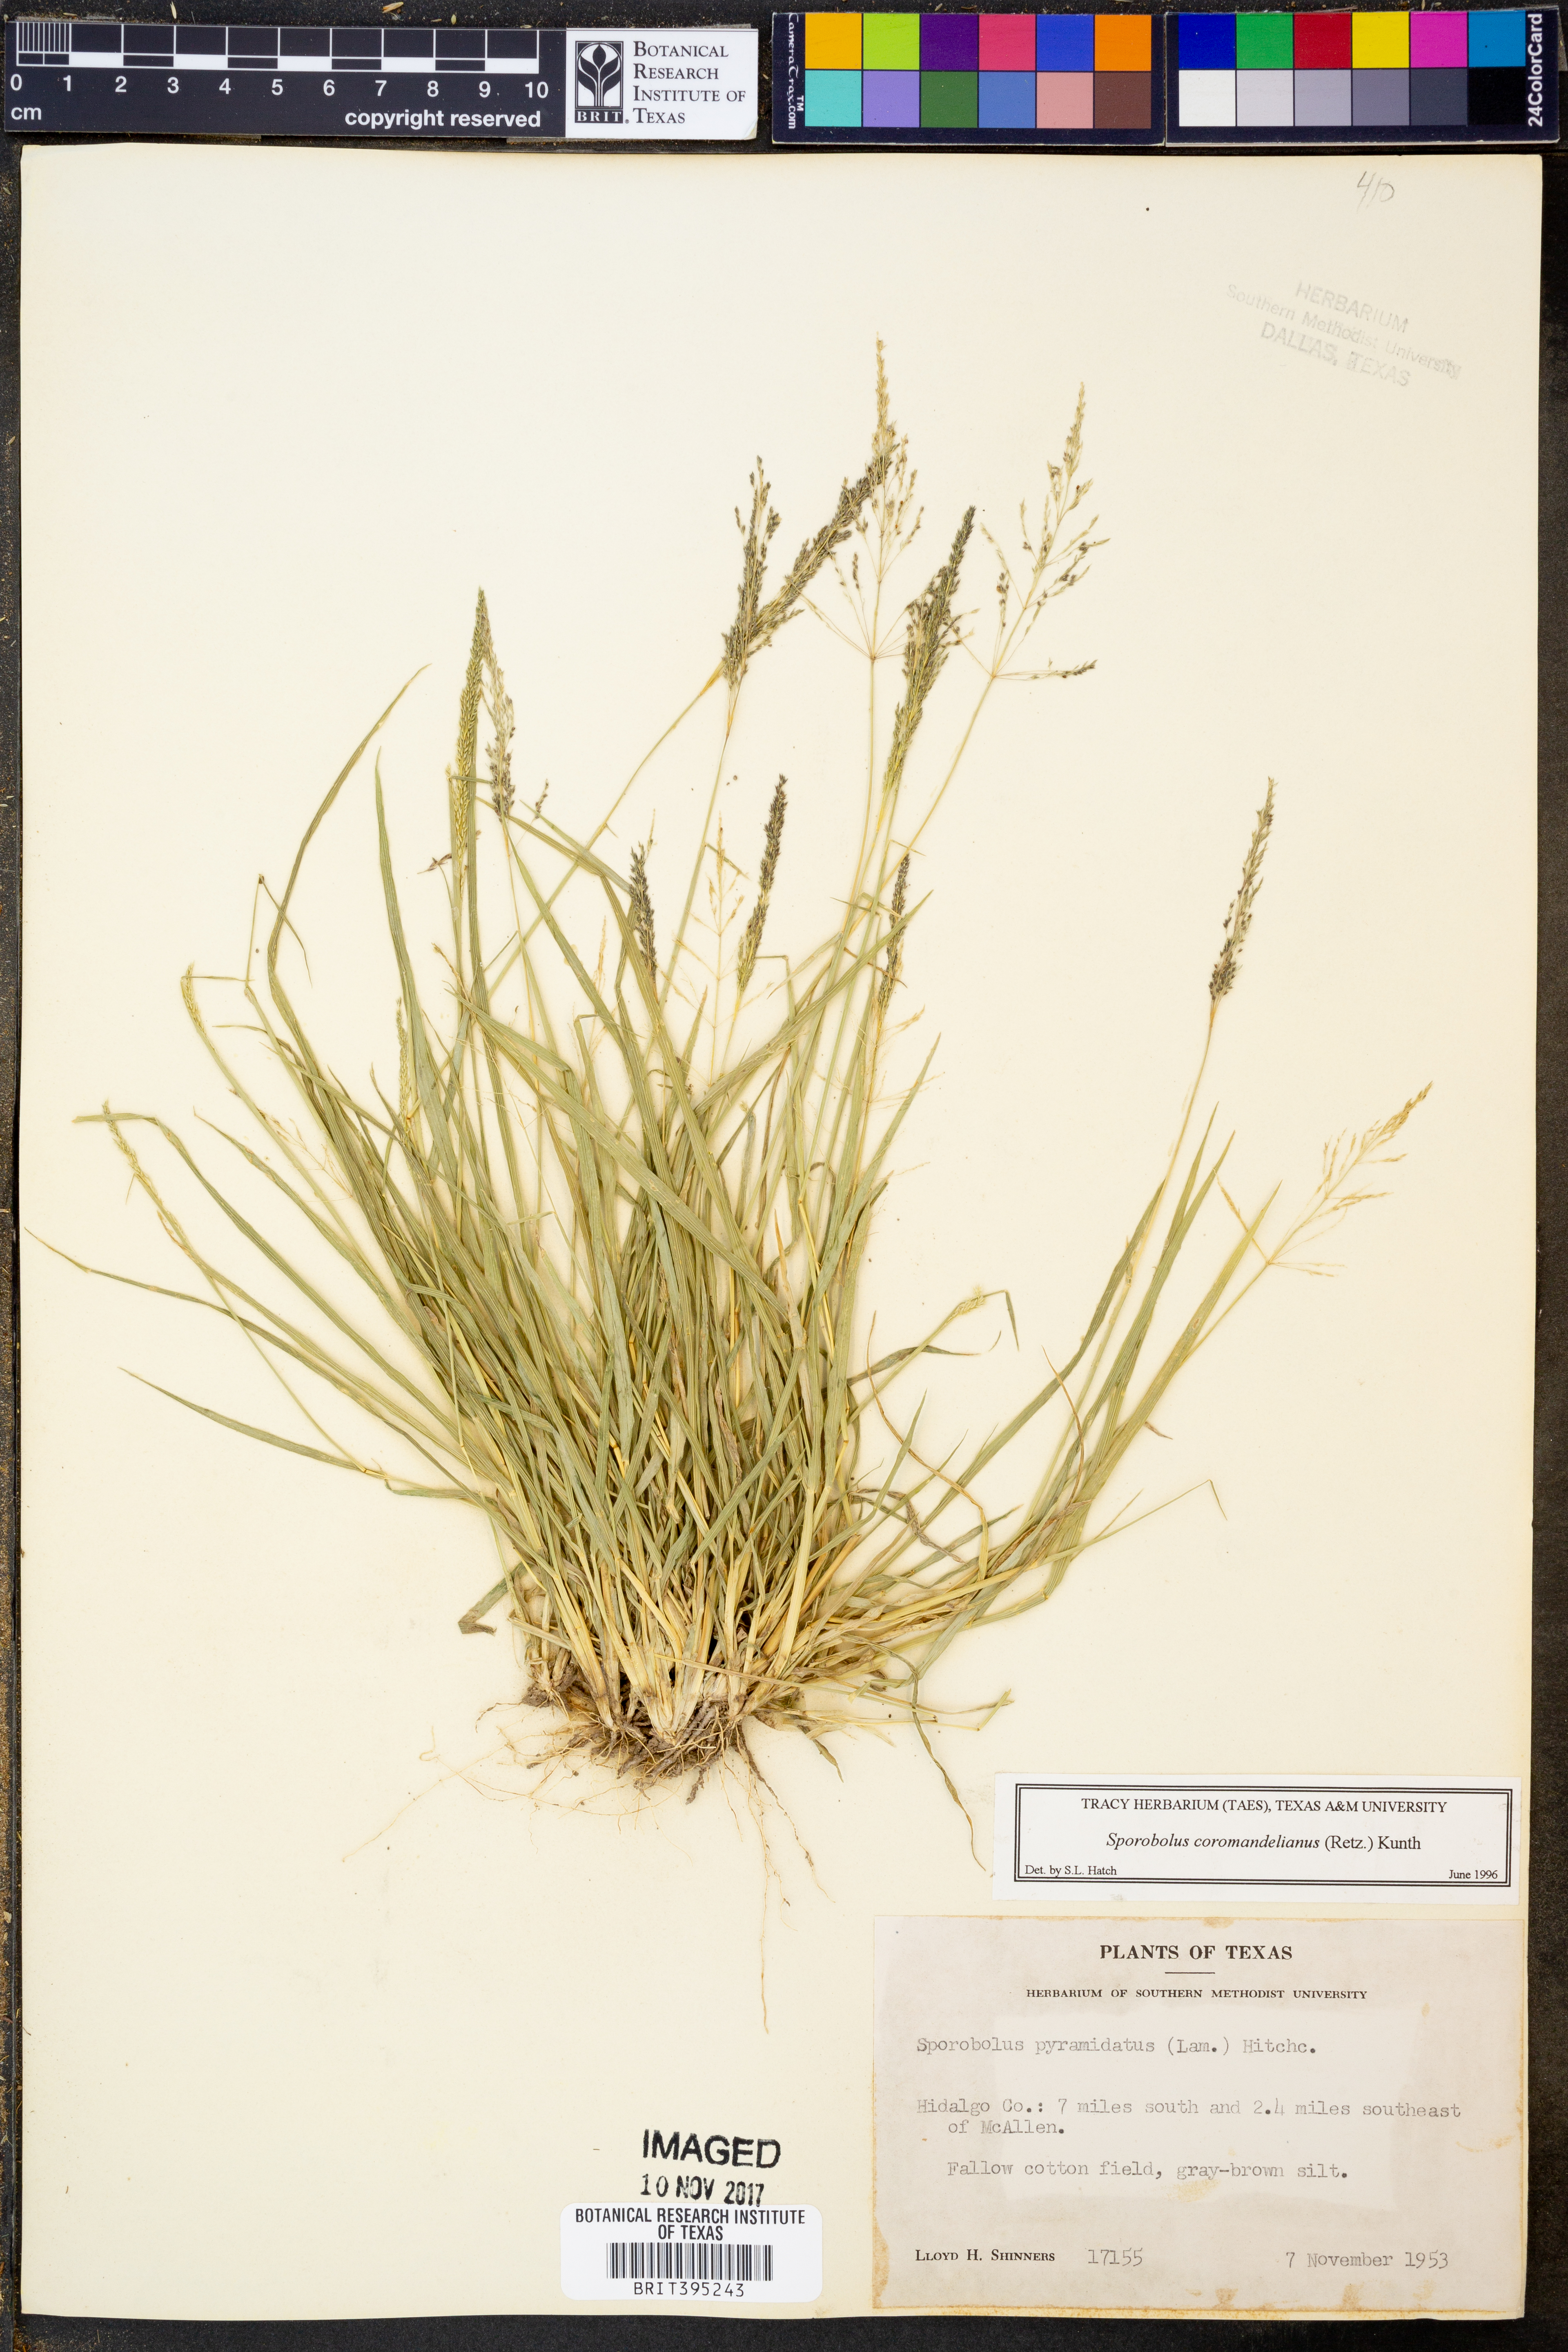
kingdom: Plantae
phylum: Tracheophyta
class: Liliopsida
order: Poales
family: Poaceae
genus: Sporobolus
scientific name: Sporobolus coromandelianus
